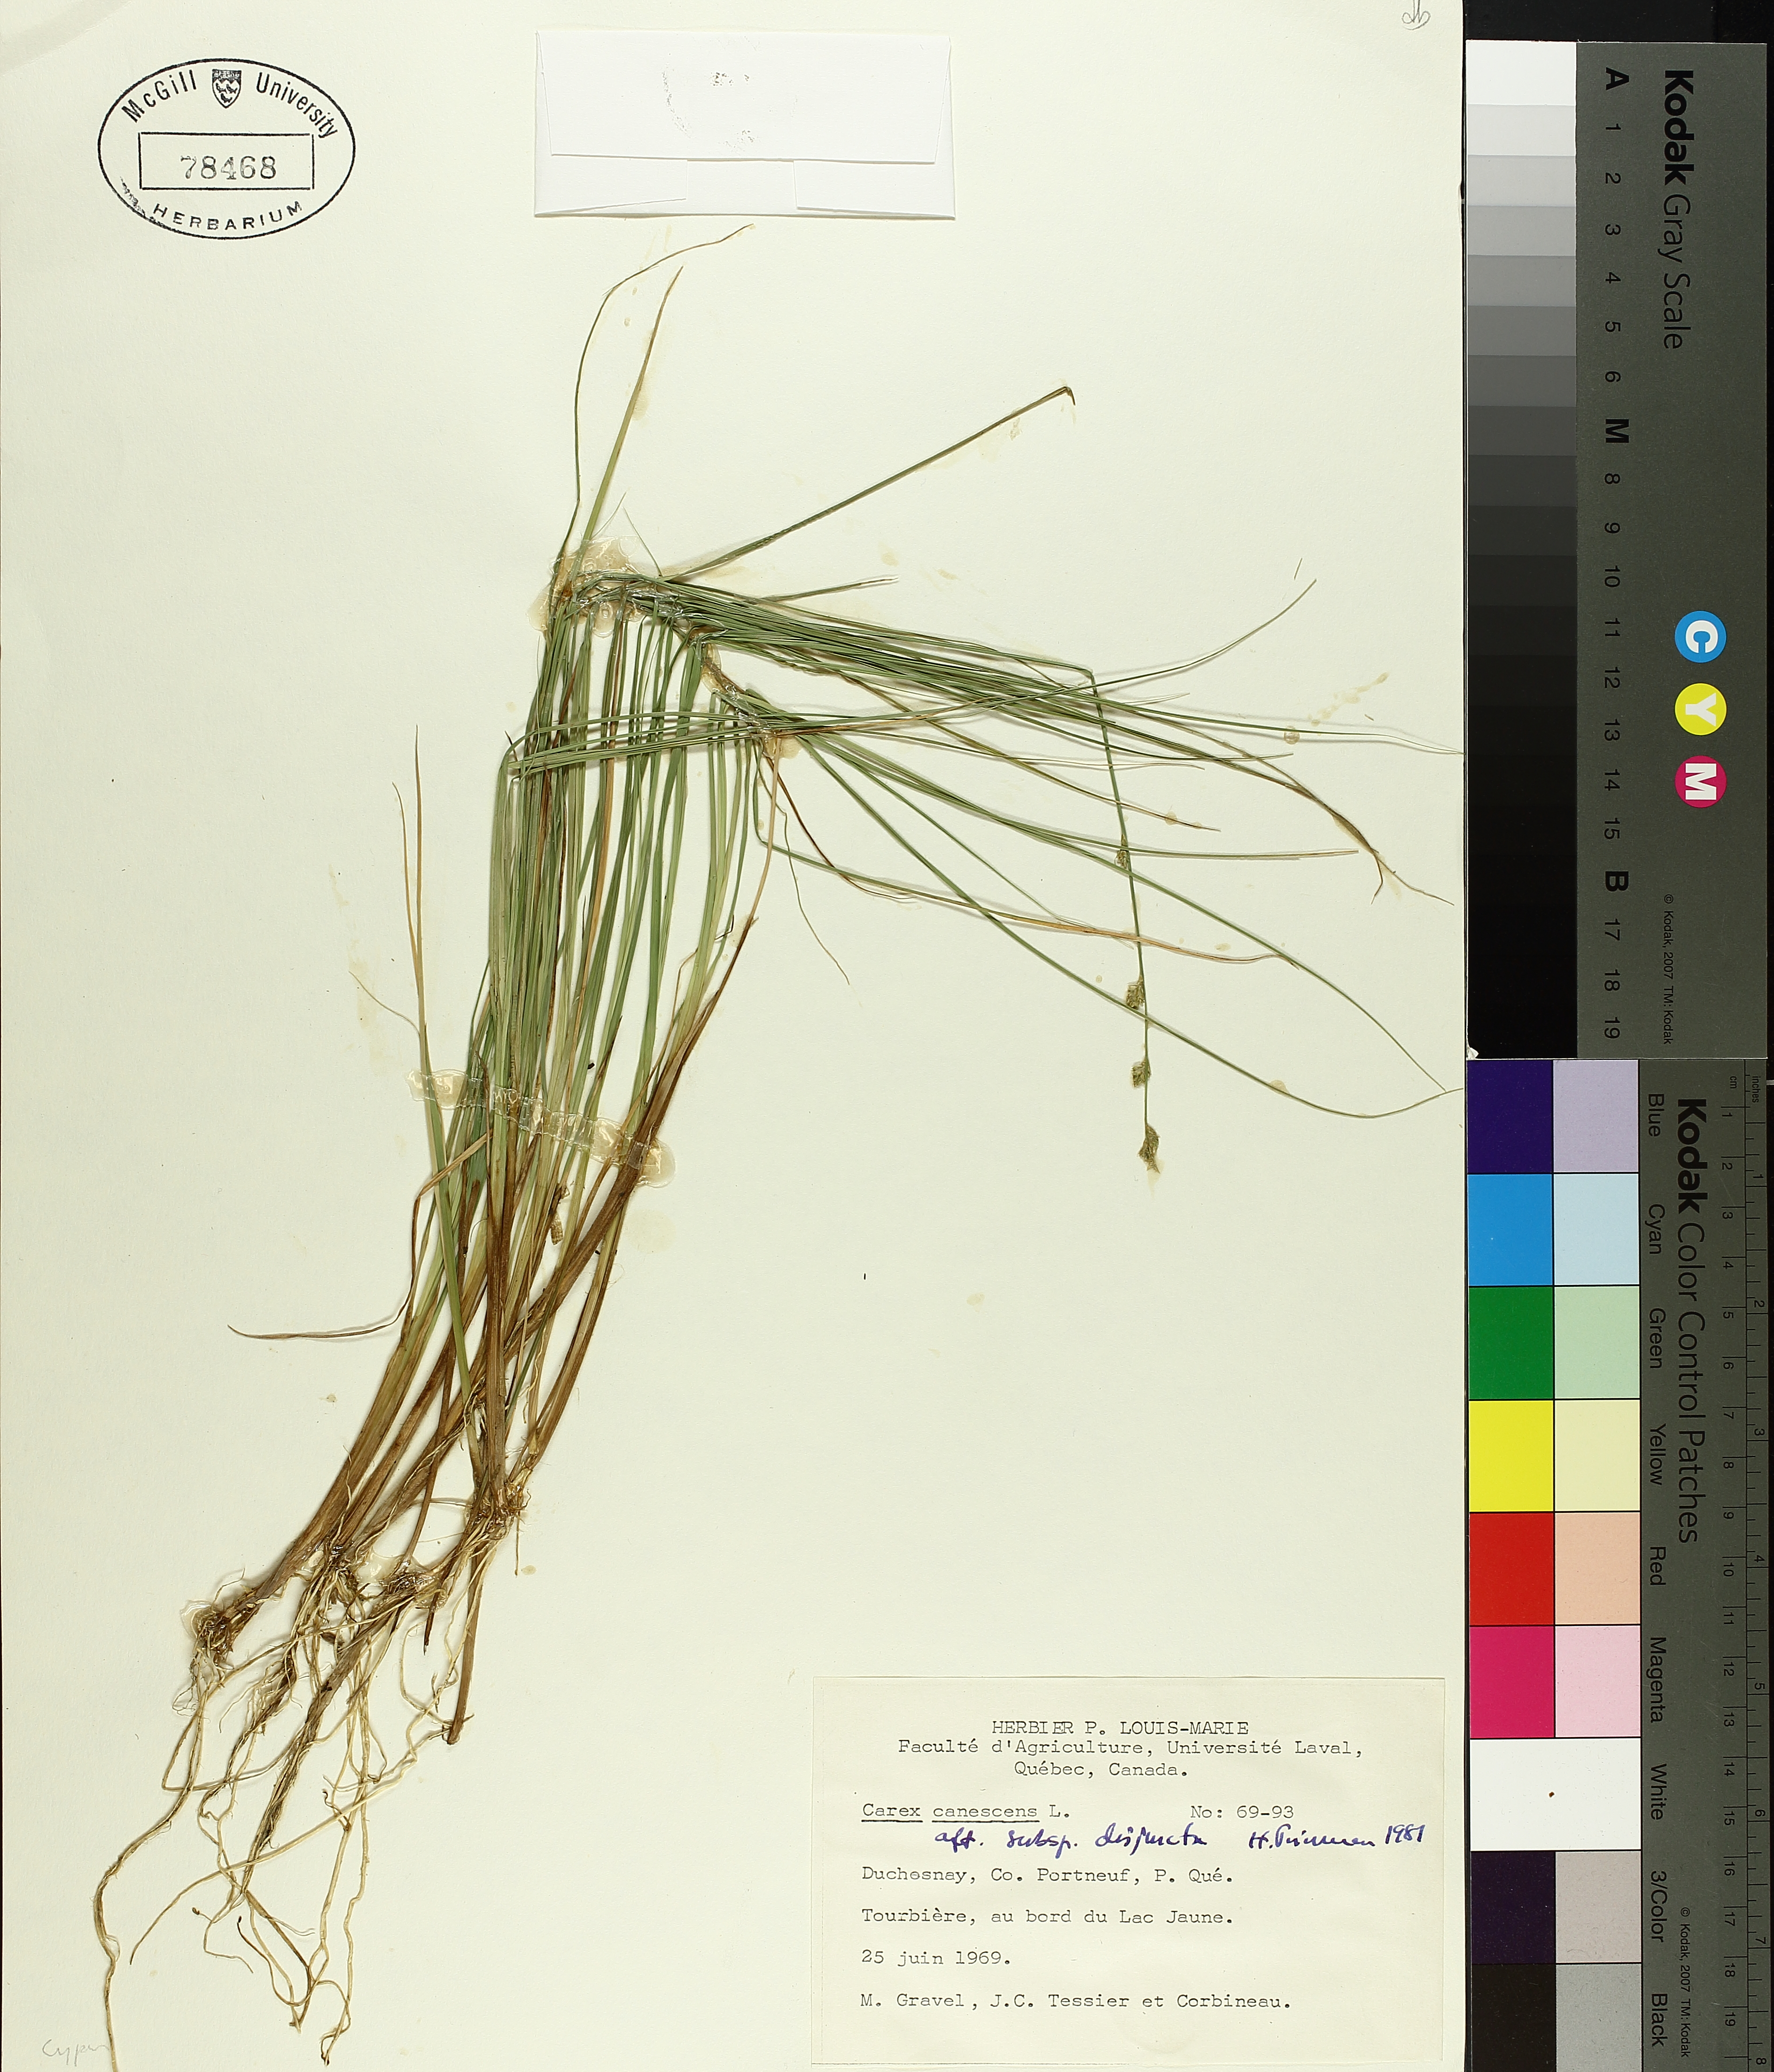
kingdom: Plantae
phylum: Tracheophyta
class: Liliopsida
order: Poales
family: Cyperaceae
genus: Carex
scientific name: Carex canescens
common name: White sedge
